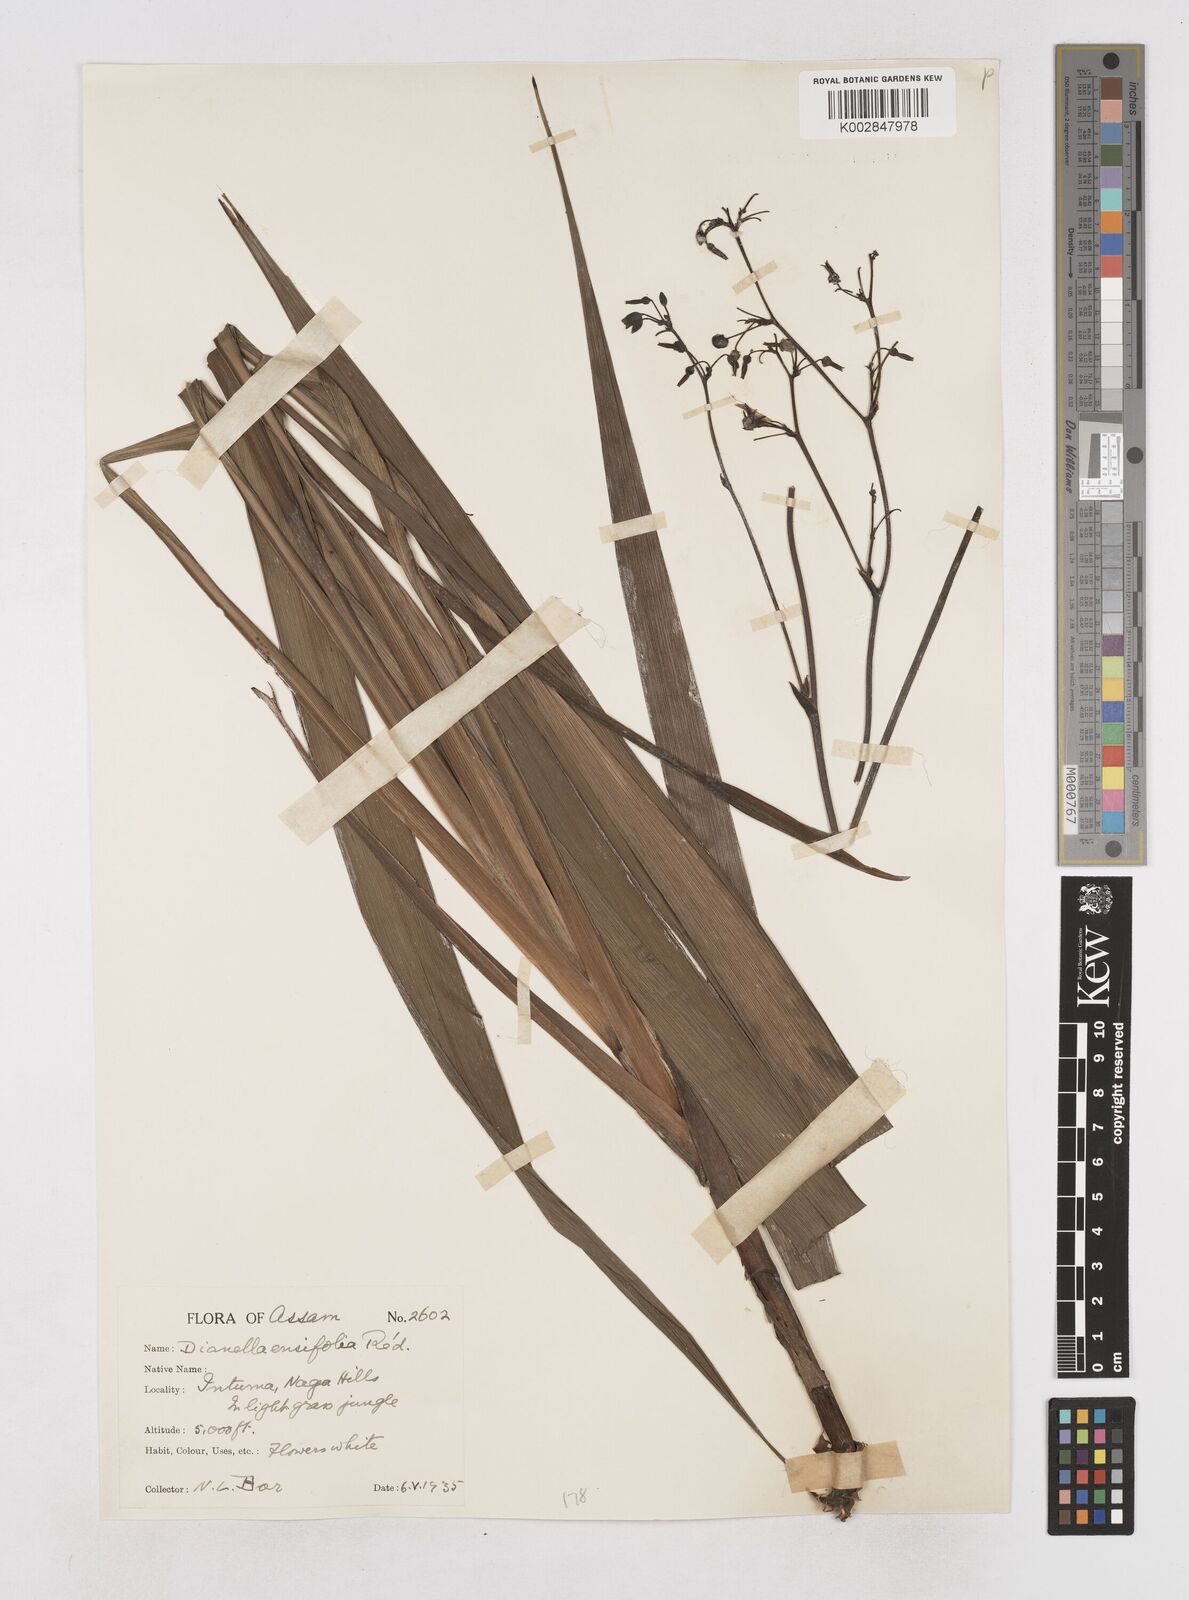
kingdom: Plantae
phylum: Tracheophyta
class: Liliopsida
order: Asparagales
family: Asphodelaceae
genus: Dianella
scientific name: Dianella ensifolia
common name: New zealand lilyplant
